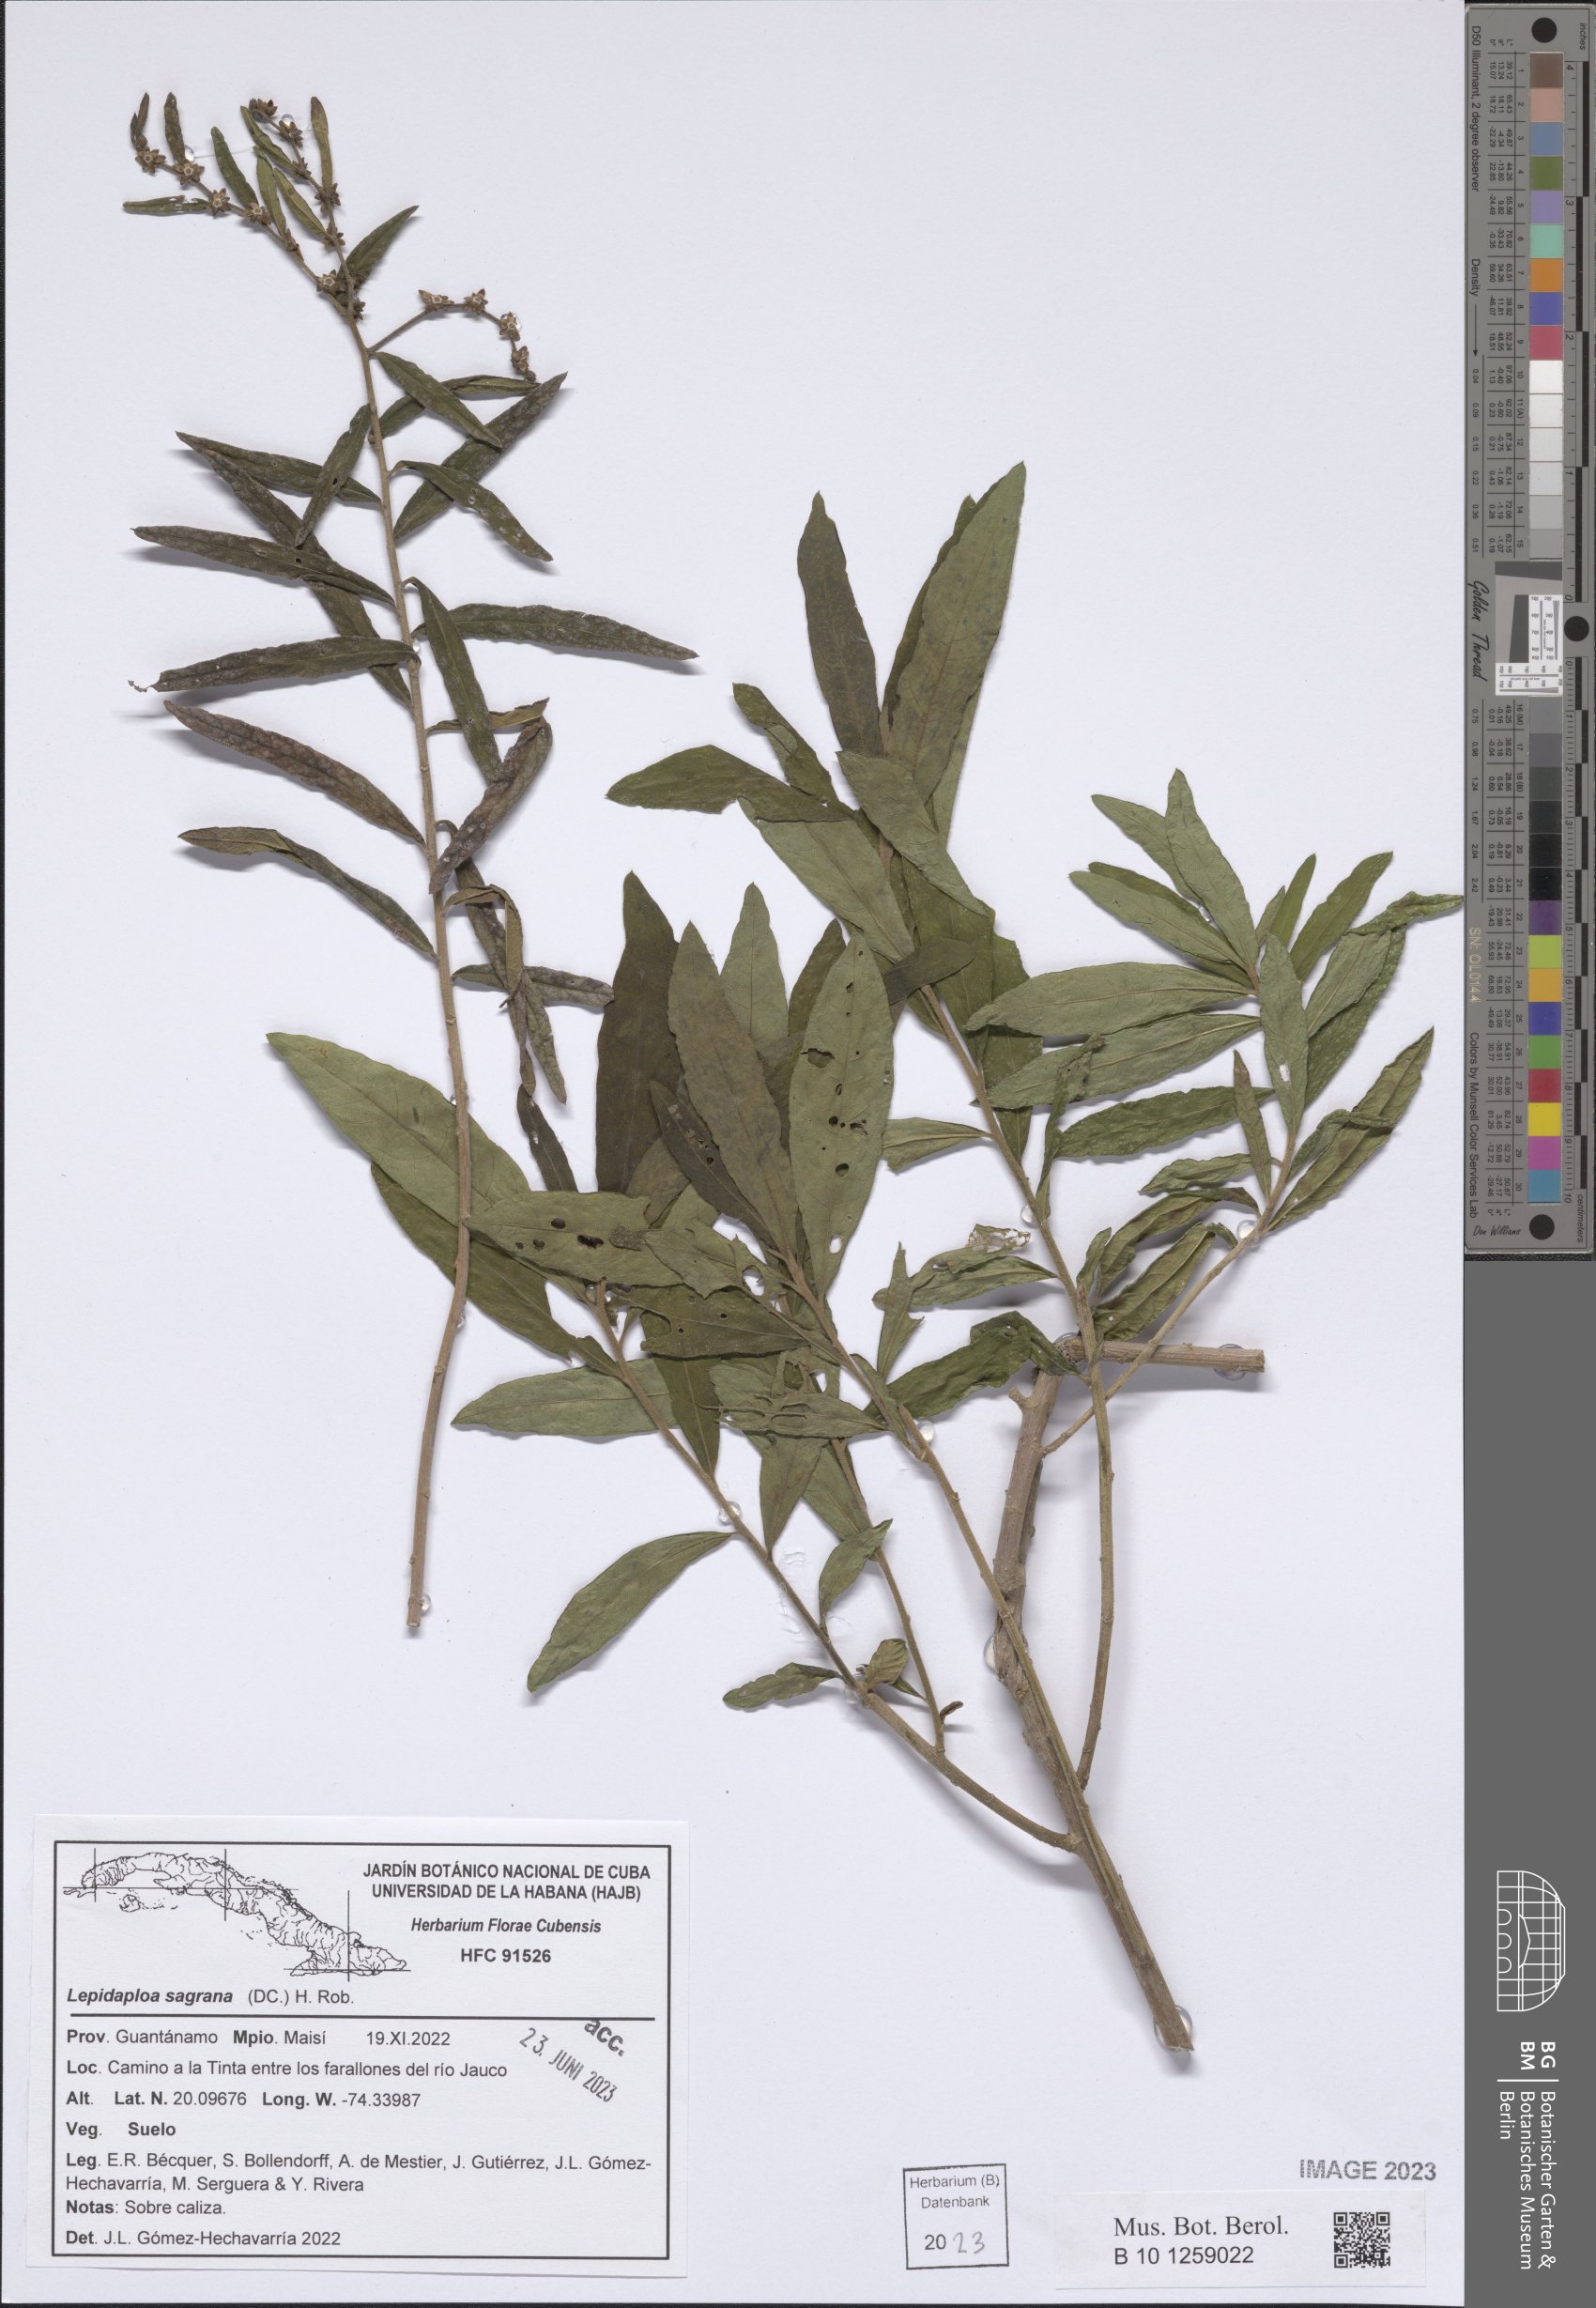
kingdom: Plantae
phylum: Tracheophyta
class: Magnoliopsida
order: Asterales
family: Asteraceae
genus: Lepidaploa
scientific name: Lepidaploa sagraeana
